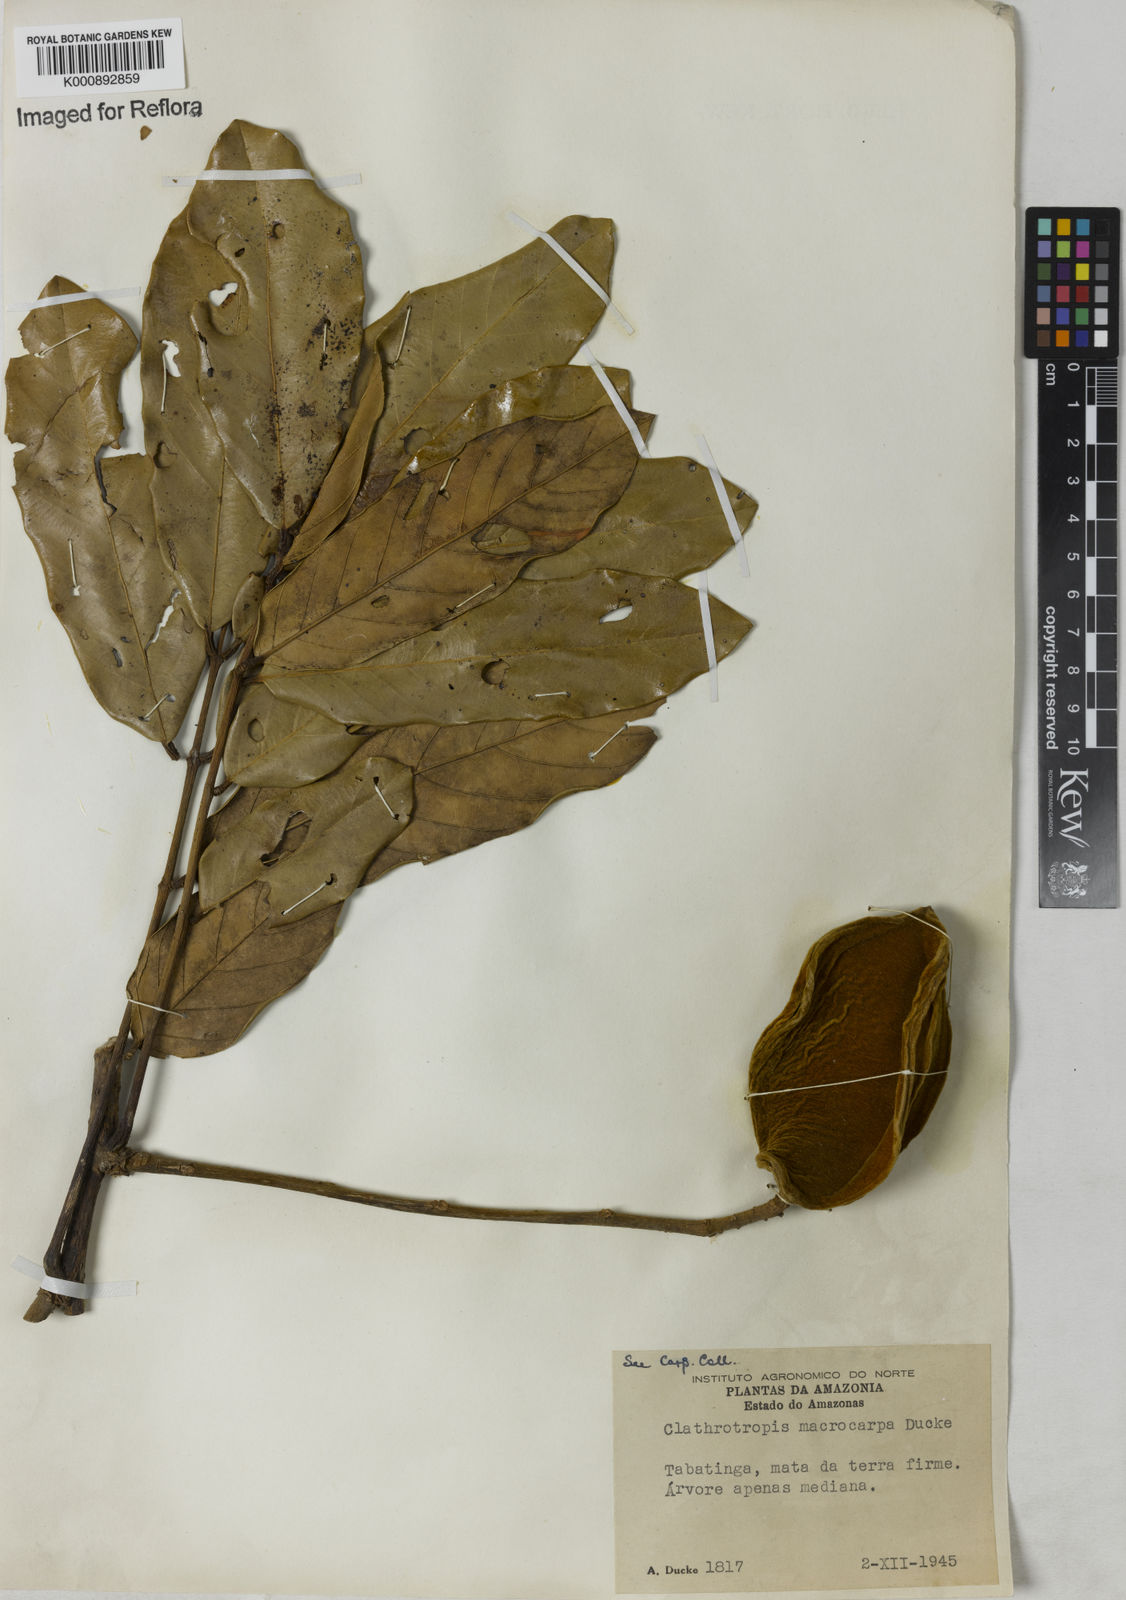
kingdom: Plantae
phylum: Tracheophyta
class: Magnoliopsida
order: Fabales
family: Fabaceae
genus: Clathrotropis
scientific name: Clathrotropis macrocarpa
